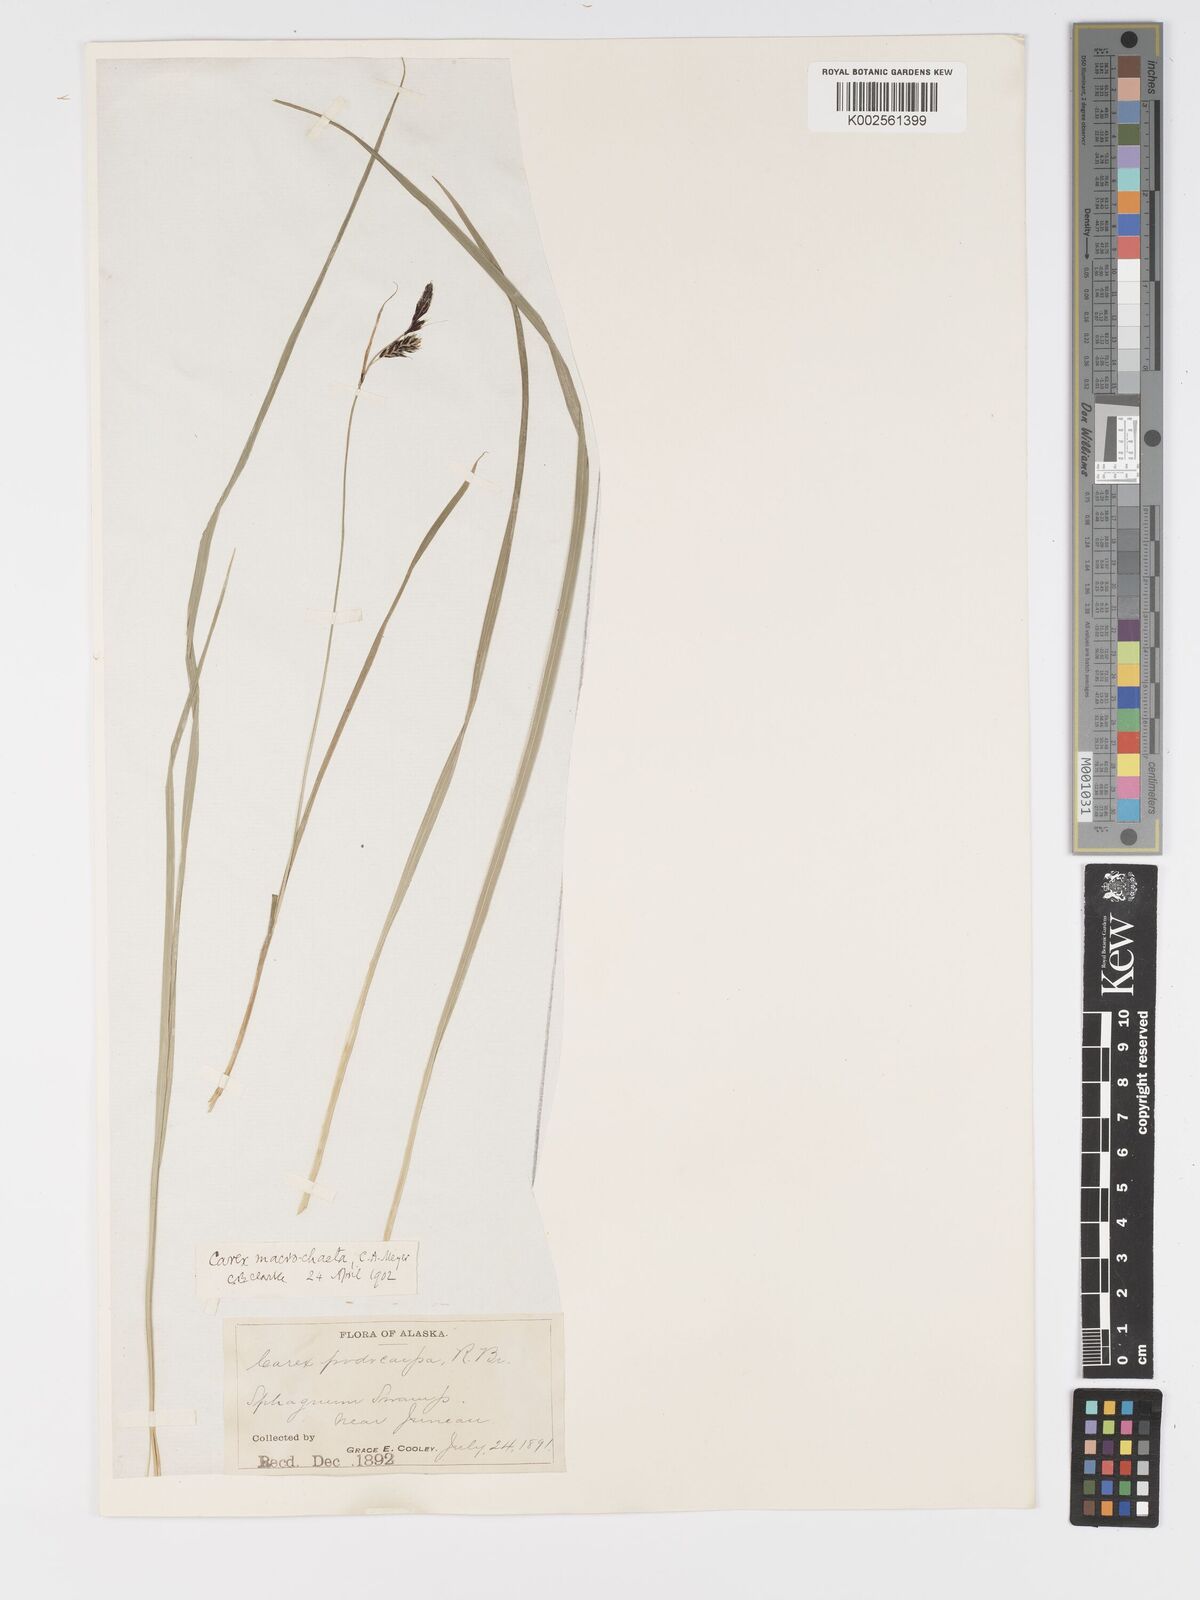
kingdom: Plantae
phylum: Tracheophyta
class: Liliopsida
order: Poales
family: Cyperaceae
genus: Carex
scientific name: Carex macrochaeta
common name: Alaska large awn sedge
